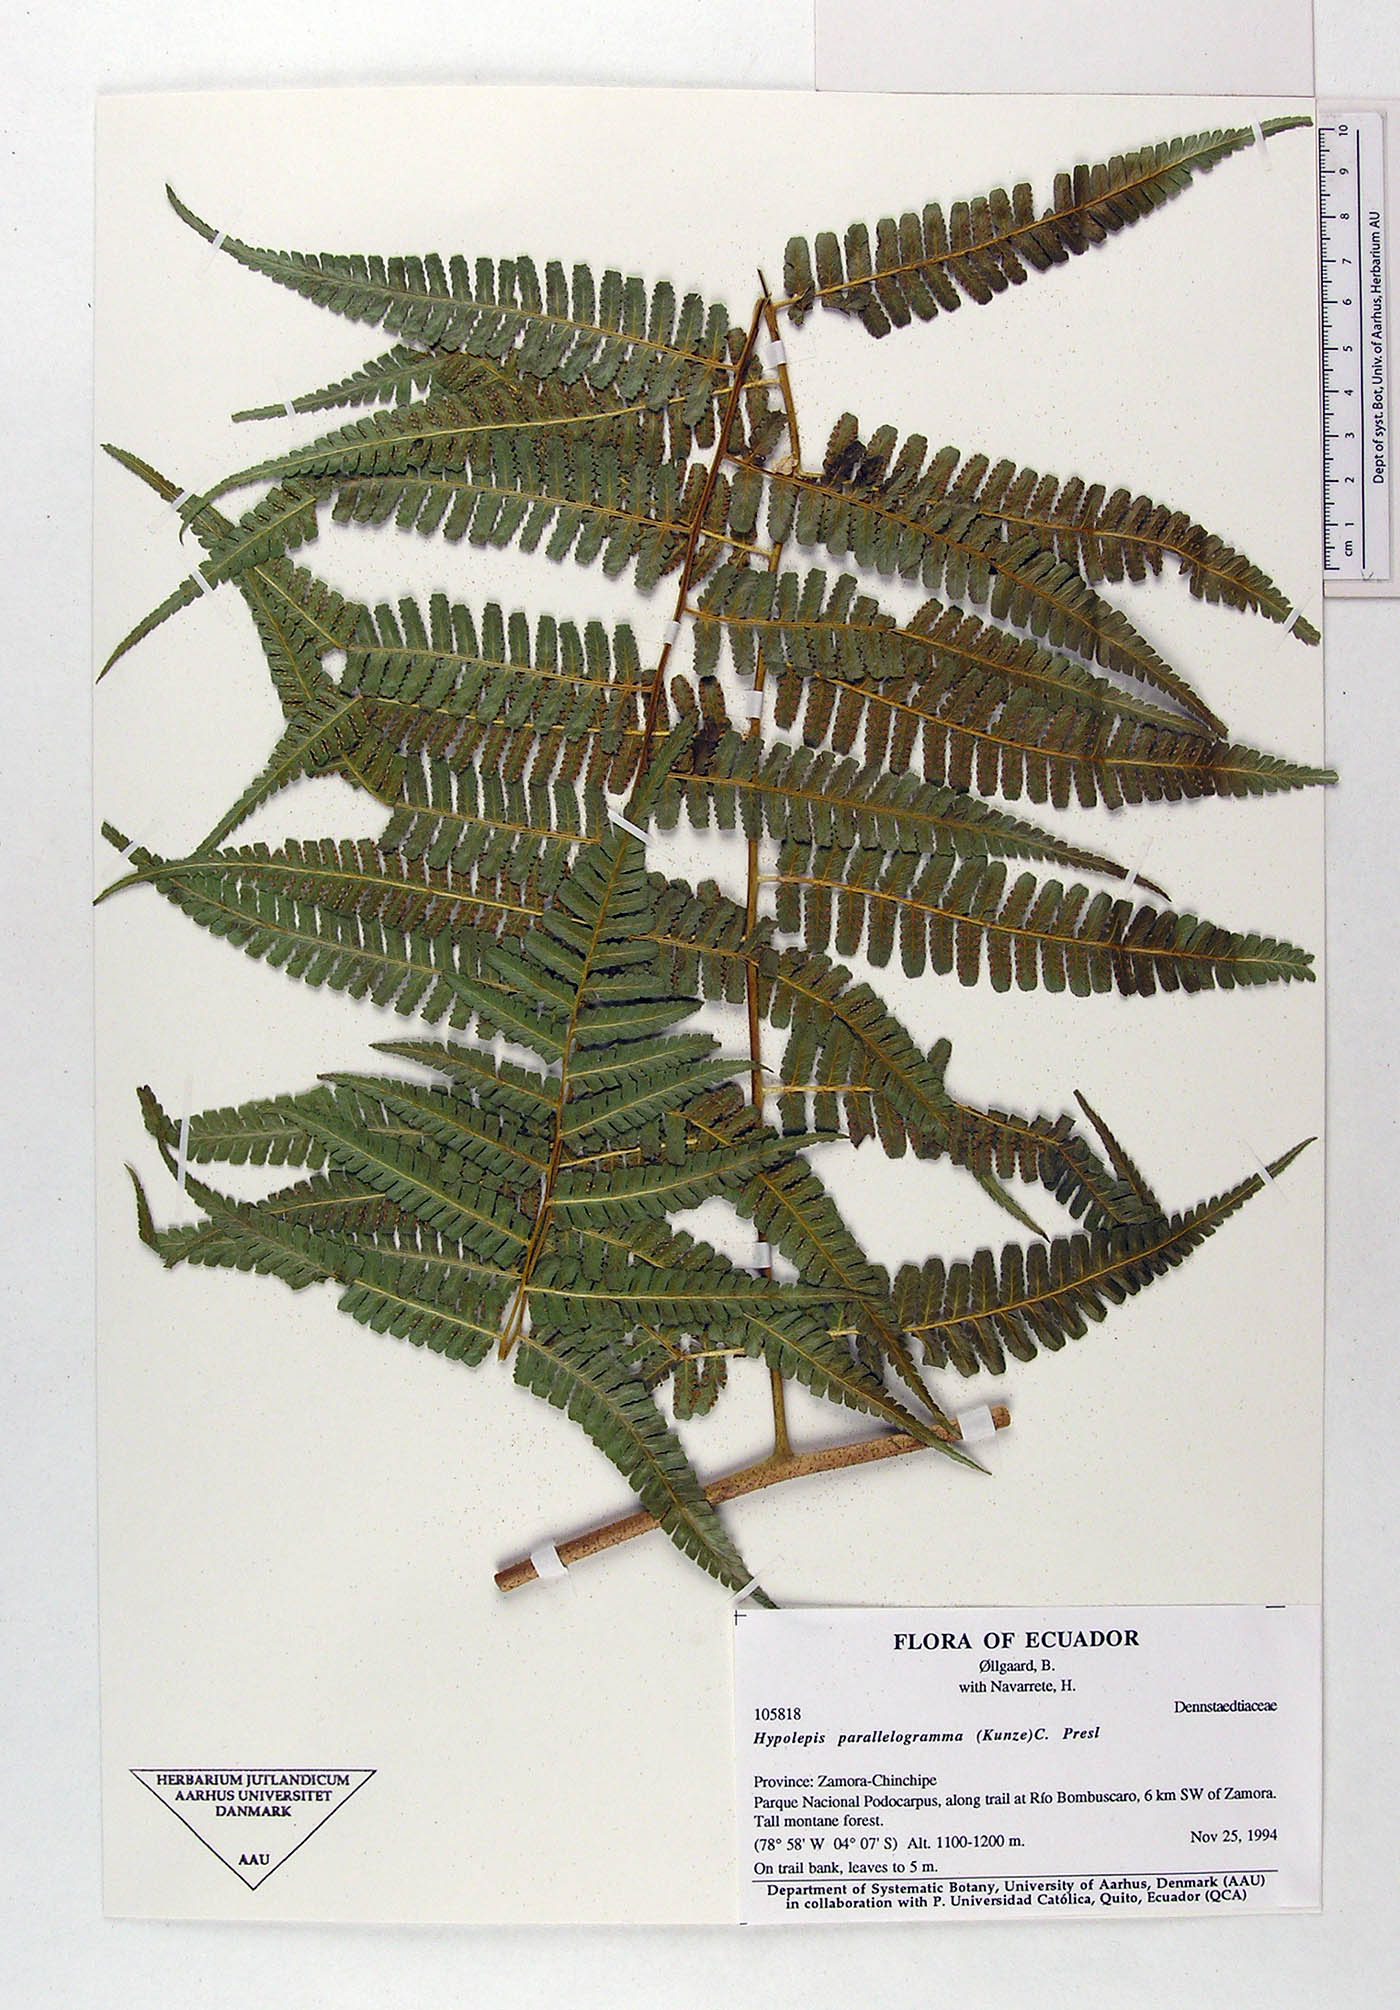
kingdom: Plantae
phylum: Tracheophyta
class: Polypodiopsida
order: Polypodiales
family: Dennstaedtiaceae
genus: Hypolepis
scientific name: Hypolepis parallelogramma
